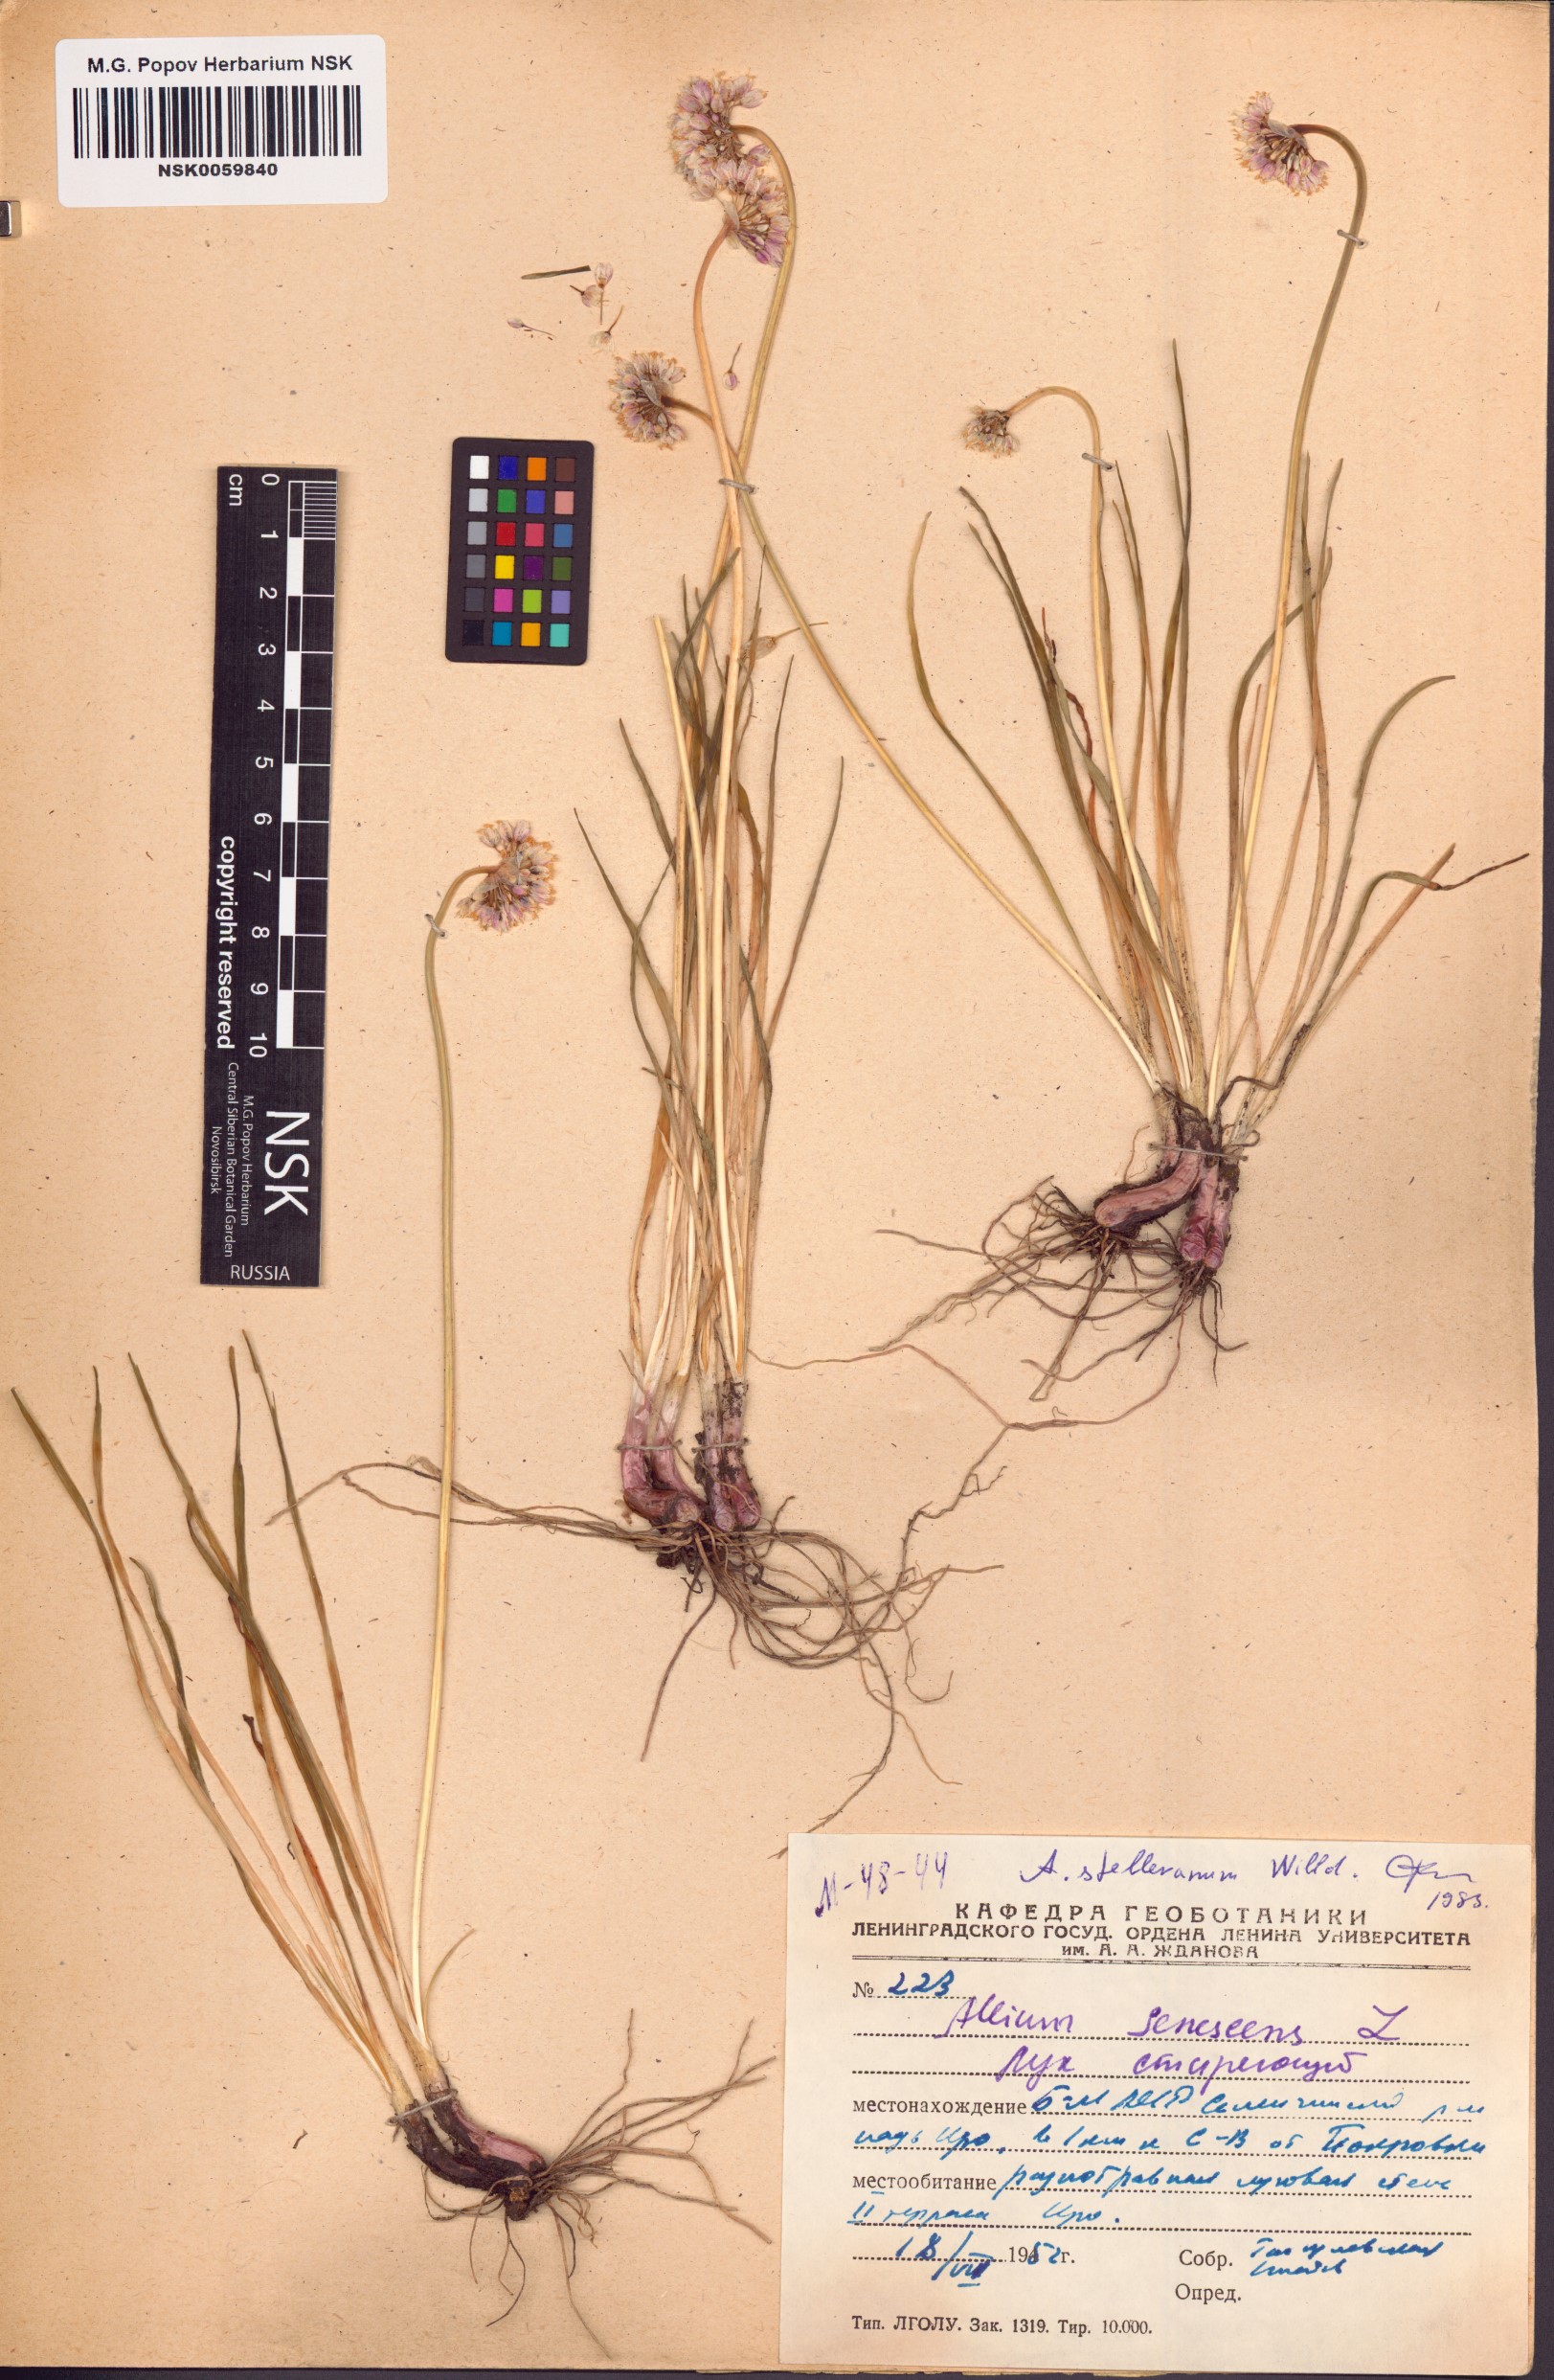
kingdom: Plantae
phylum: Tracheophyta
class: Liliopsida
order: Asparagales
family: Amaryllidaceae
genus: Allium
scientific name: Allium stellerianum
